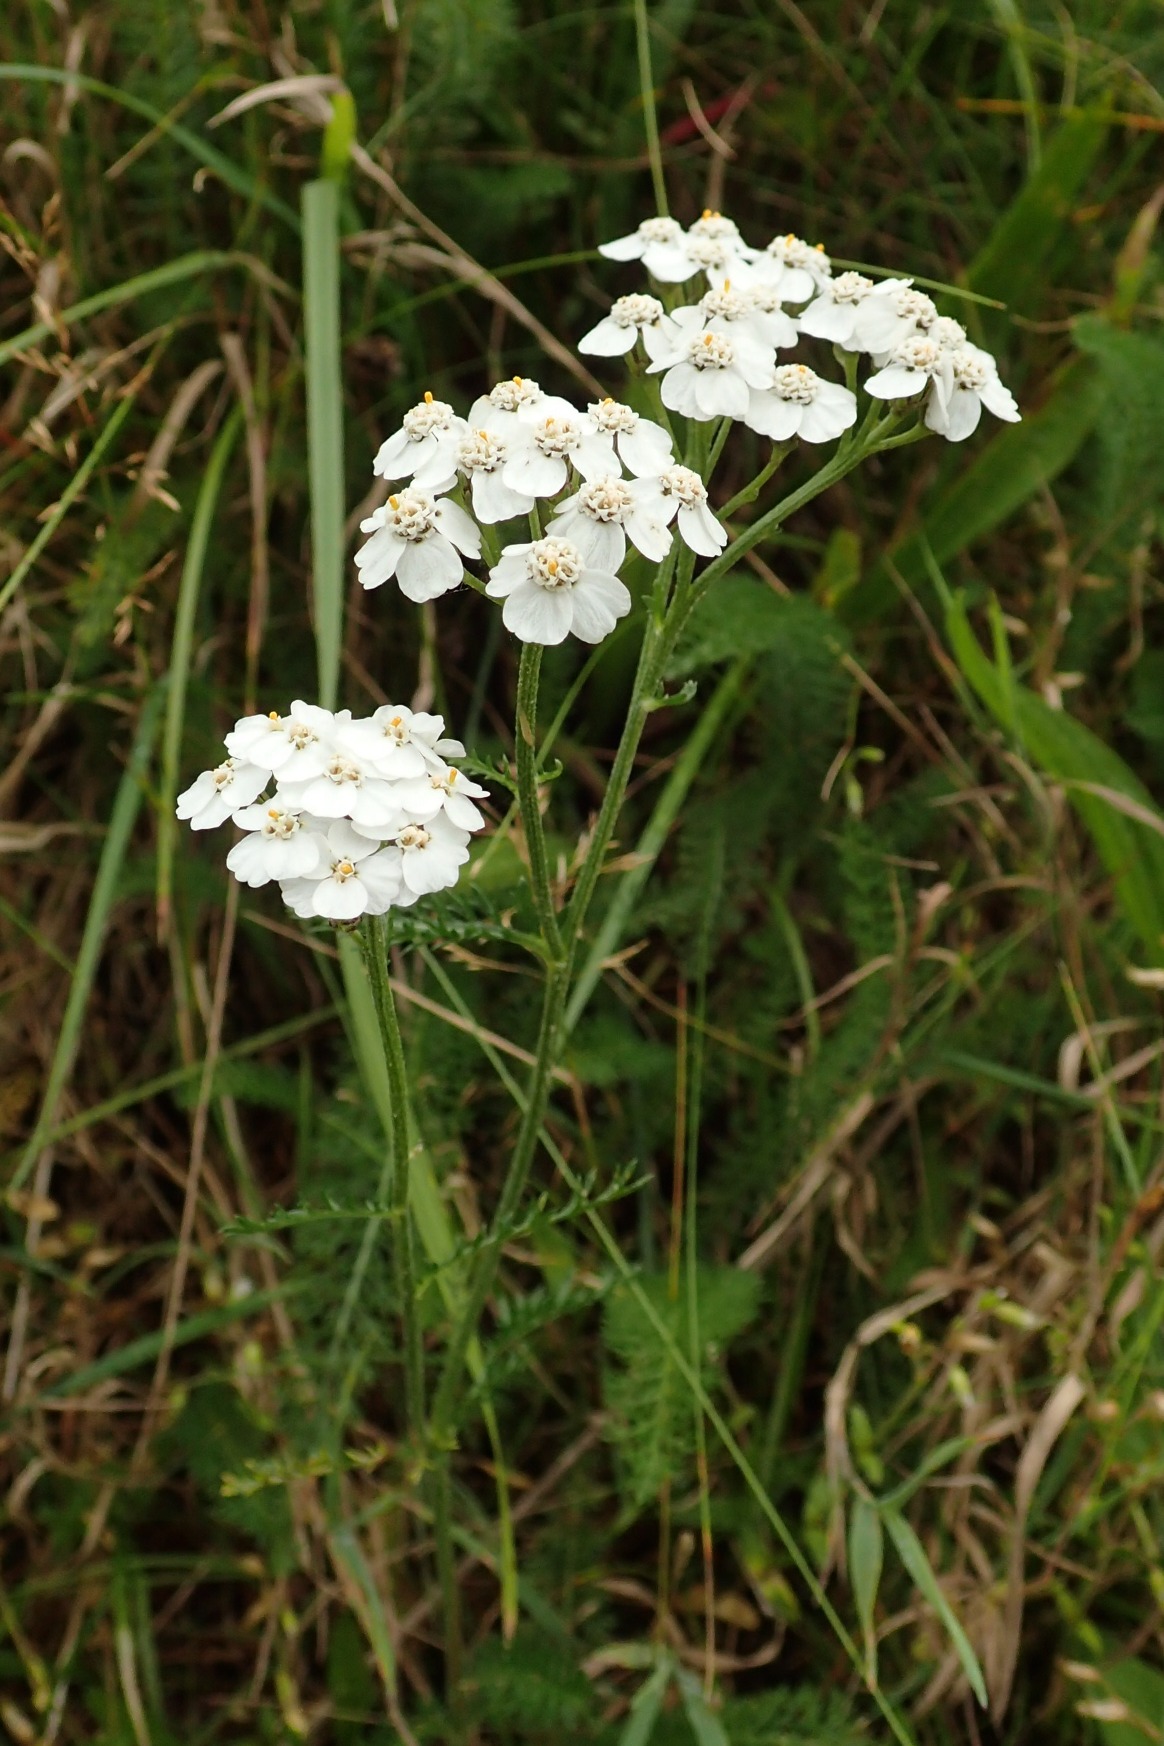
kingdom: Plantae
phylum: Tracheophyta
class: Magnoliopsida
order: Asterales
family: Asteraceae
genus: Achillea
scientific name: Achillea millefolium
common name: Almindelig røllike
